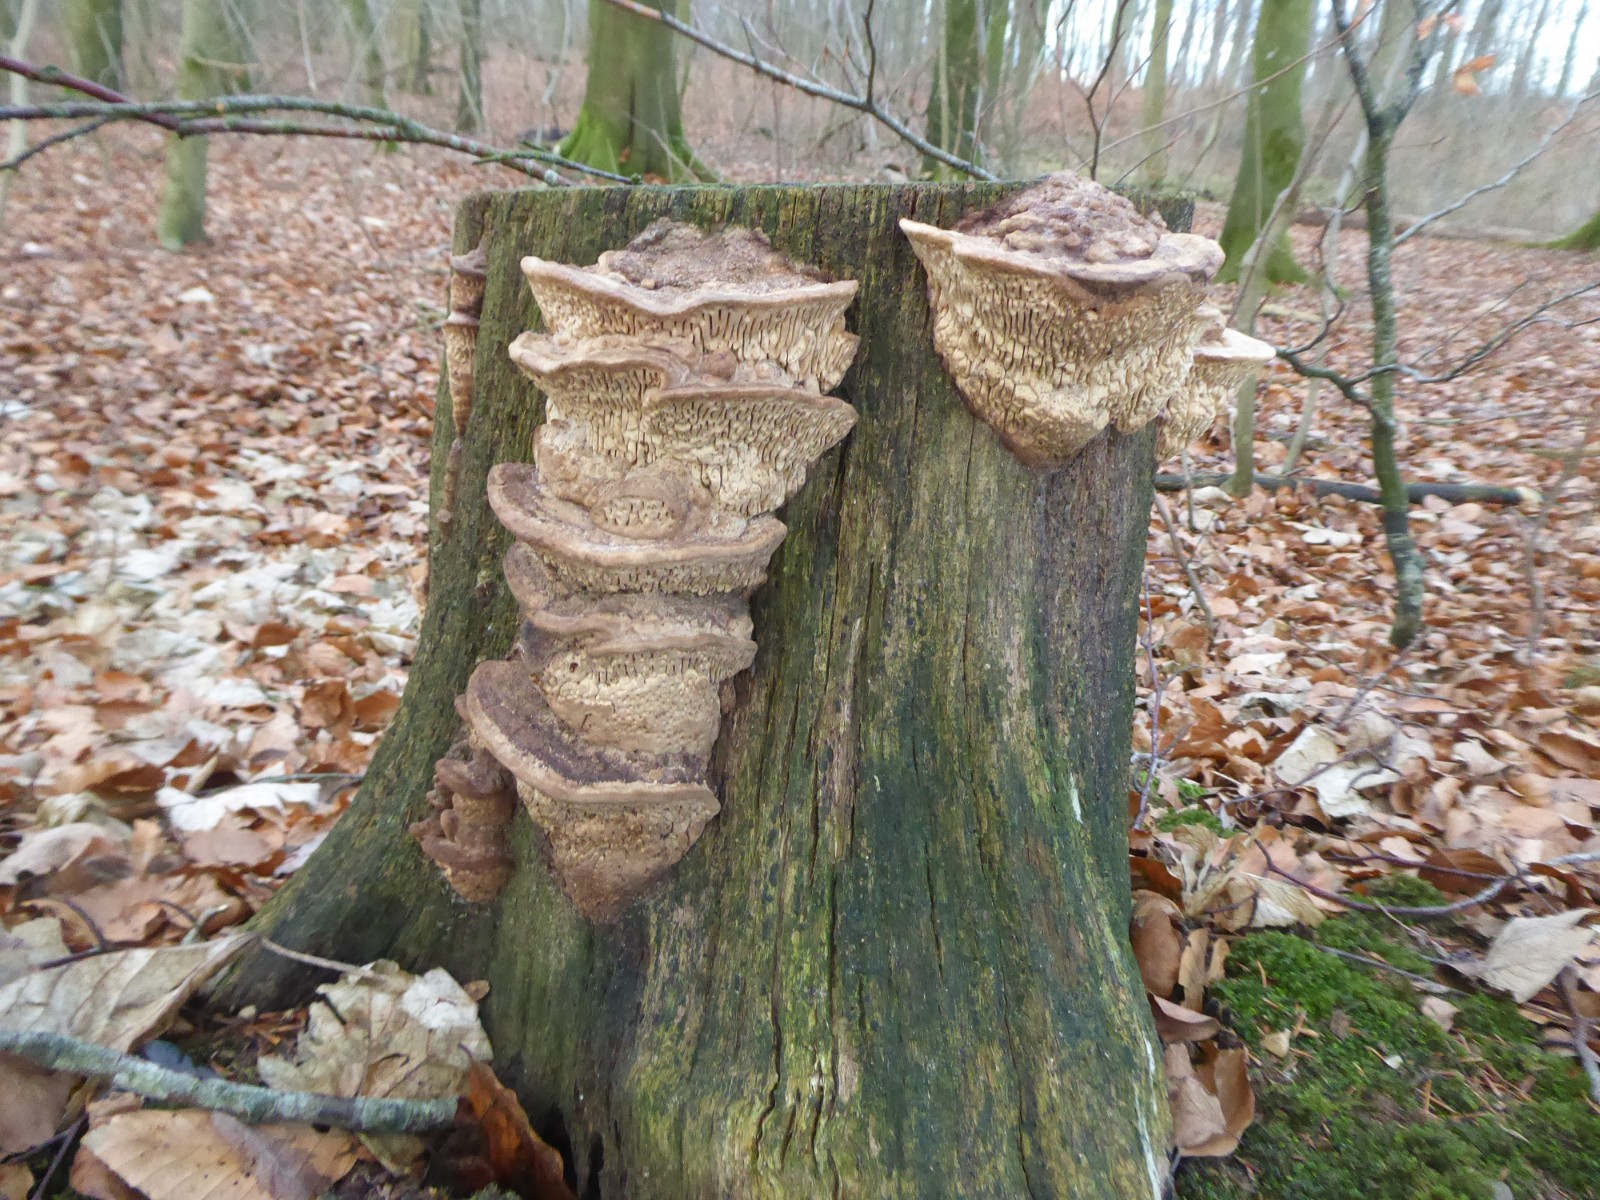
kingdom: Fungi
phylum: Basidiomycota
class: Agaricomycetes
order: Polyporales
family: Fomitopsidaceae
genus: Daedalea
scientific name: Daedalea quercina
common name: ege-labyrintsvamp
